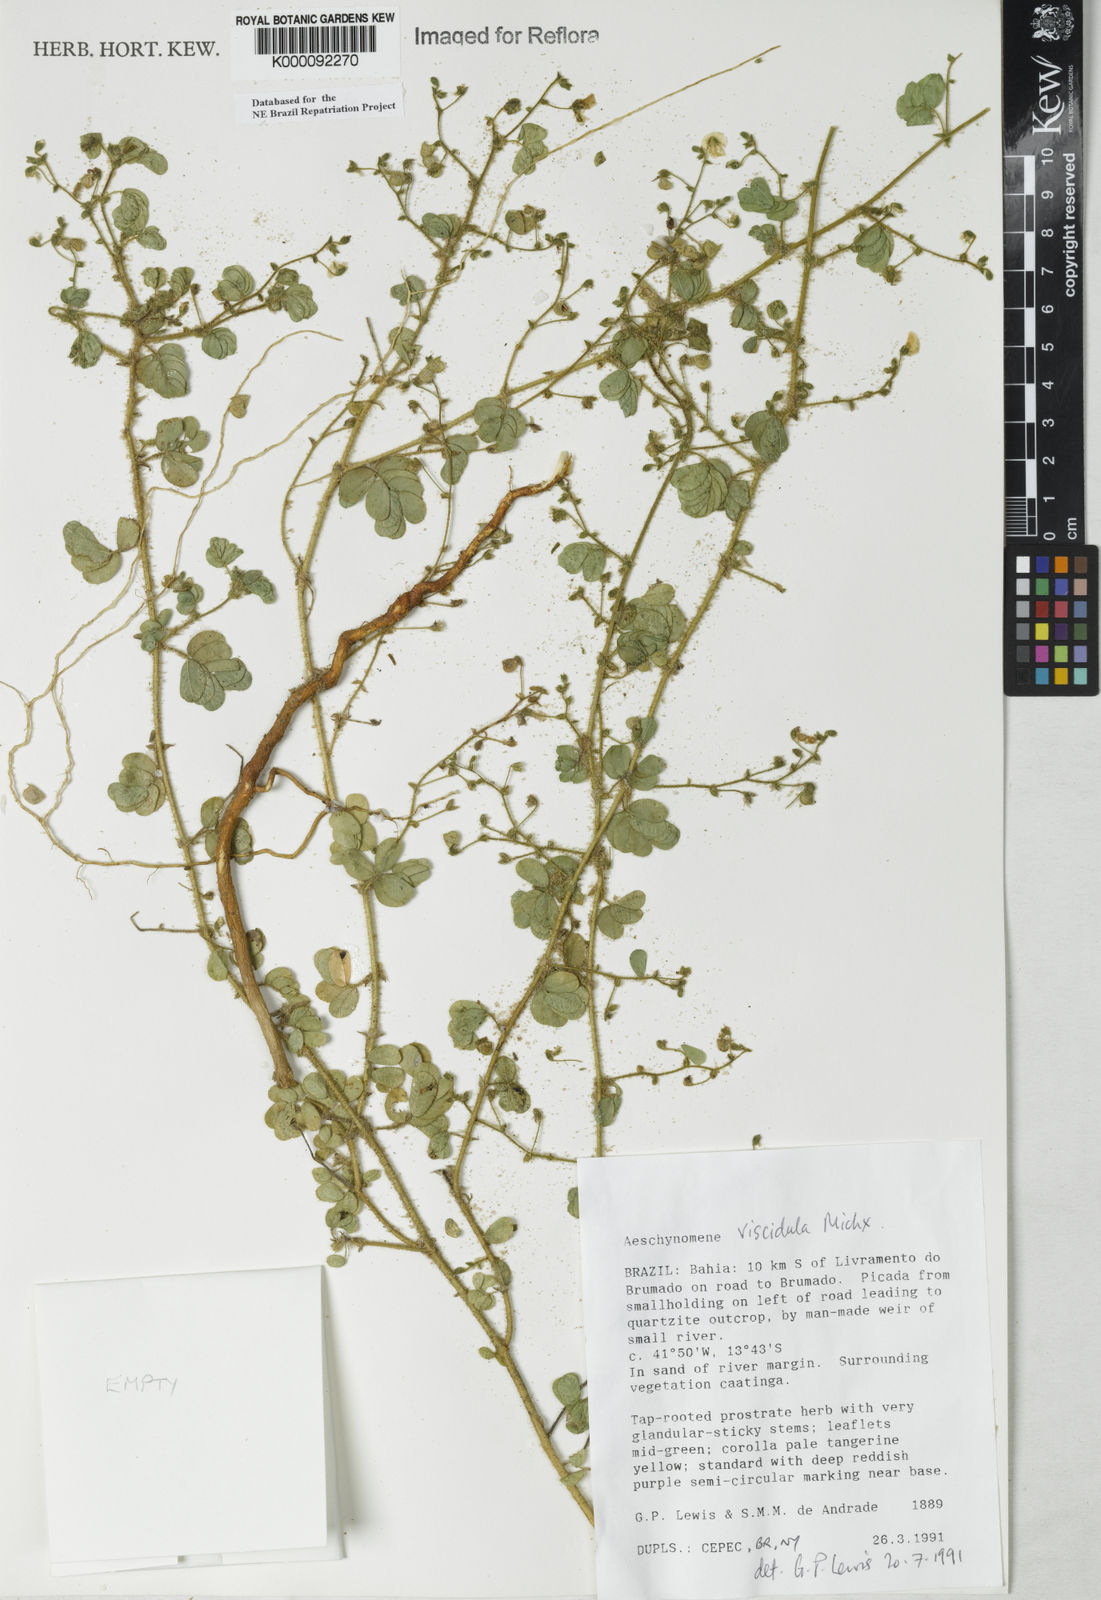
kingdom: Plantae
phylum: Tracheophyta
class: Magnoliopsida
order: Fabales
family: Fabaceae
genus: Ctenodon
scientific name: Ctenodon viscidulus
